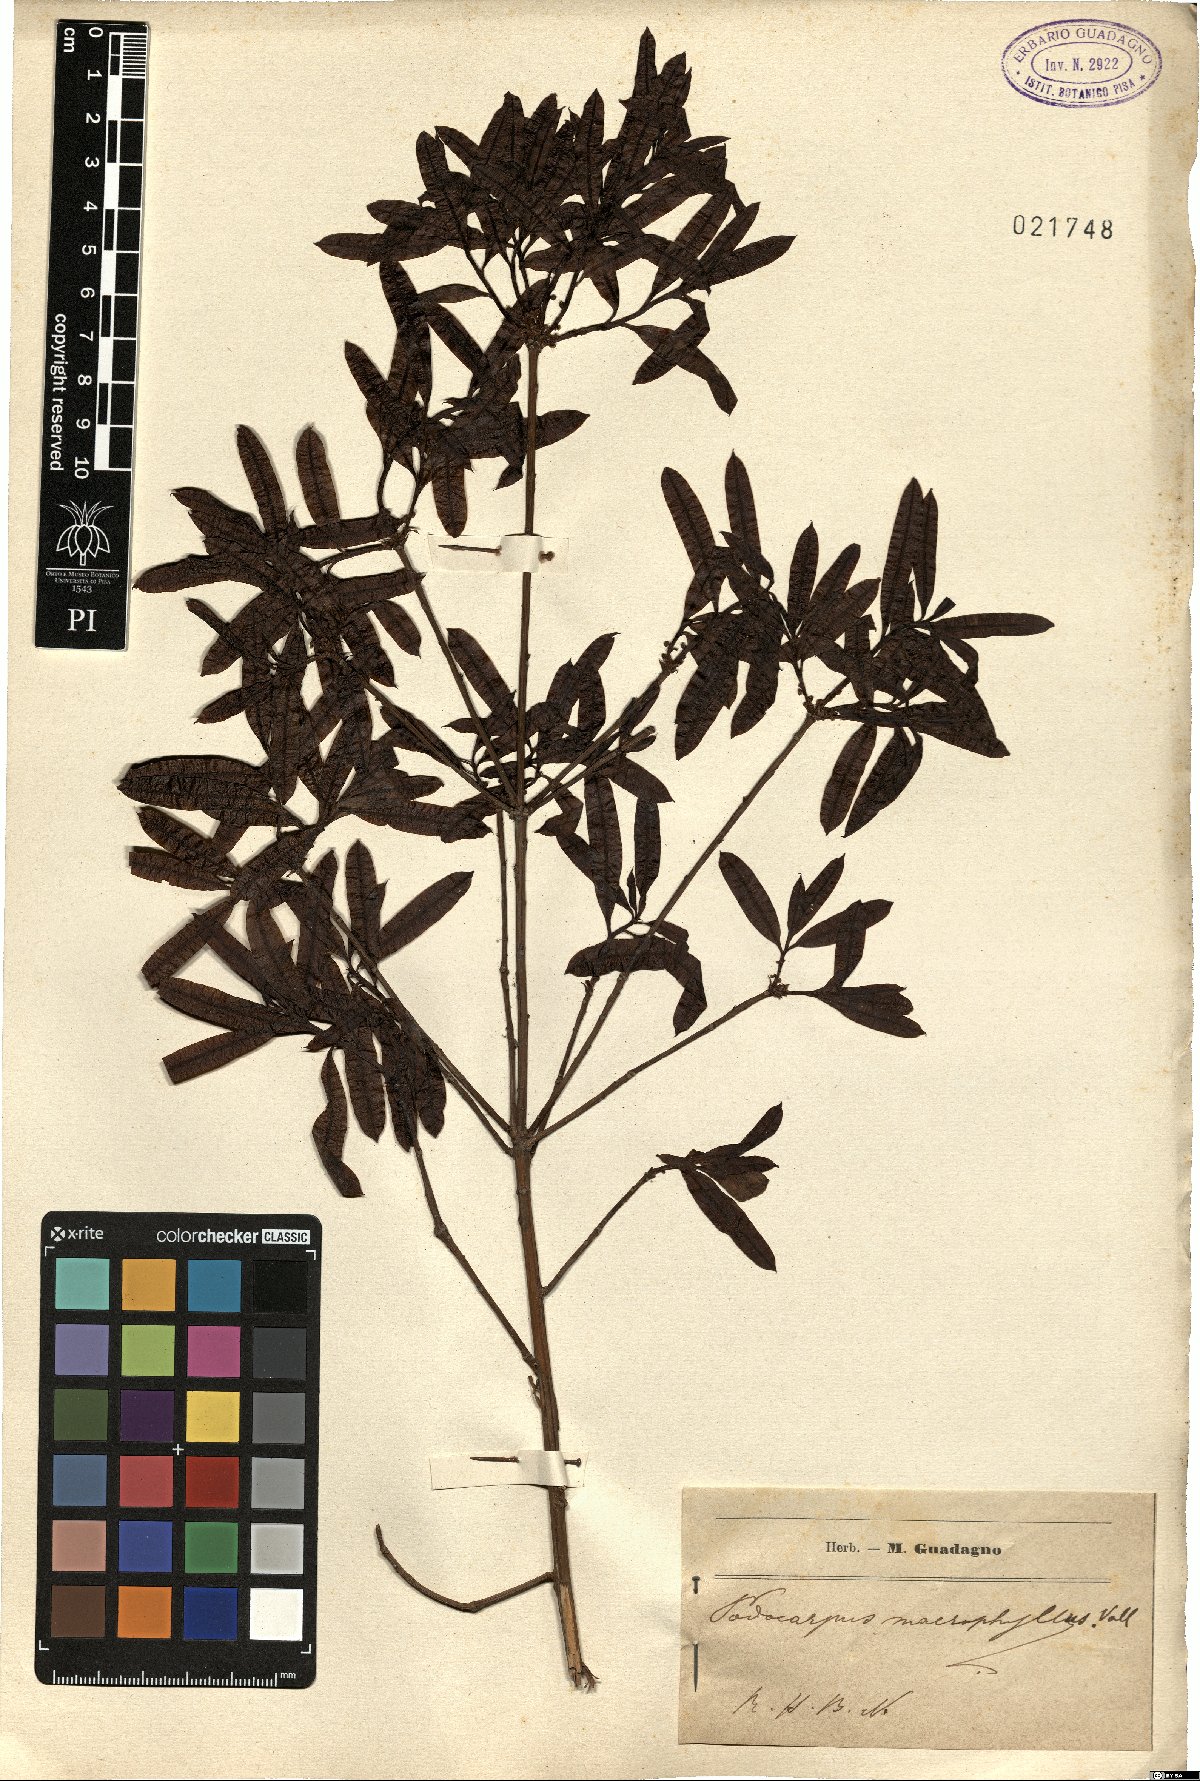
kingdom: Plantae
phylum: Tracheophyta
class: Pinopsida
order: Pinales
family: Podocarpaceae
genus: Podocarpus
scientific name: Podocarpus macrophyllus
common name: Japanese yew
